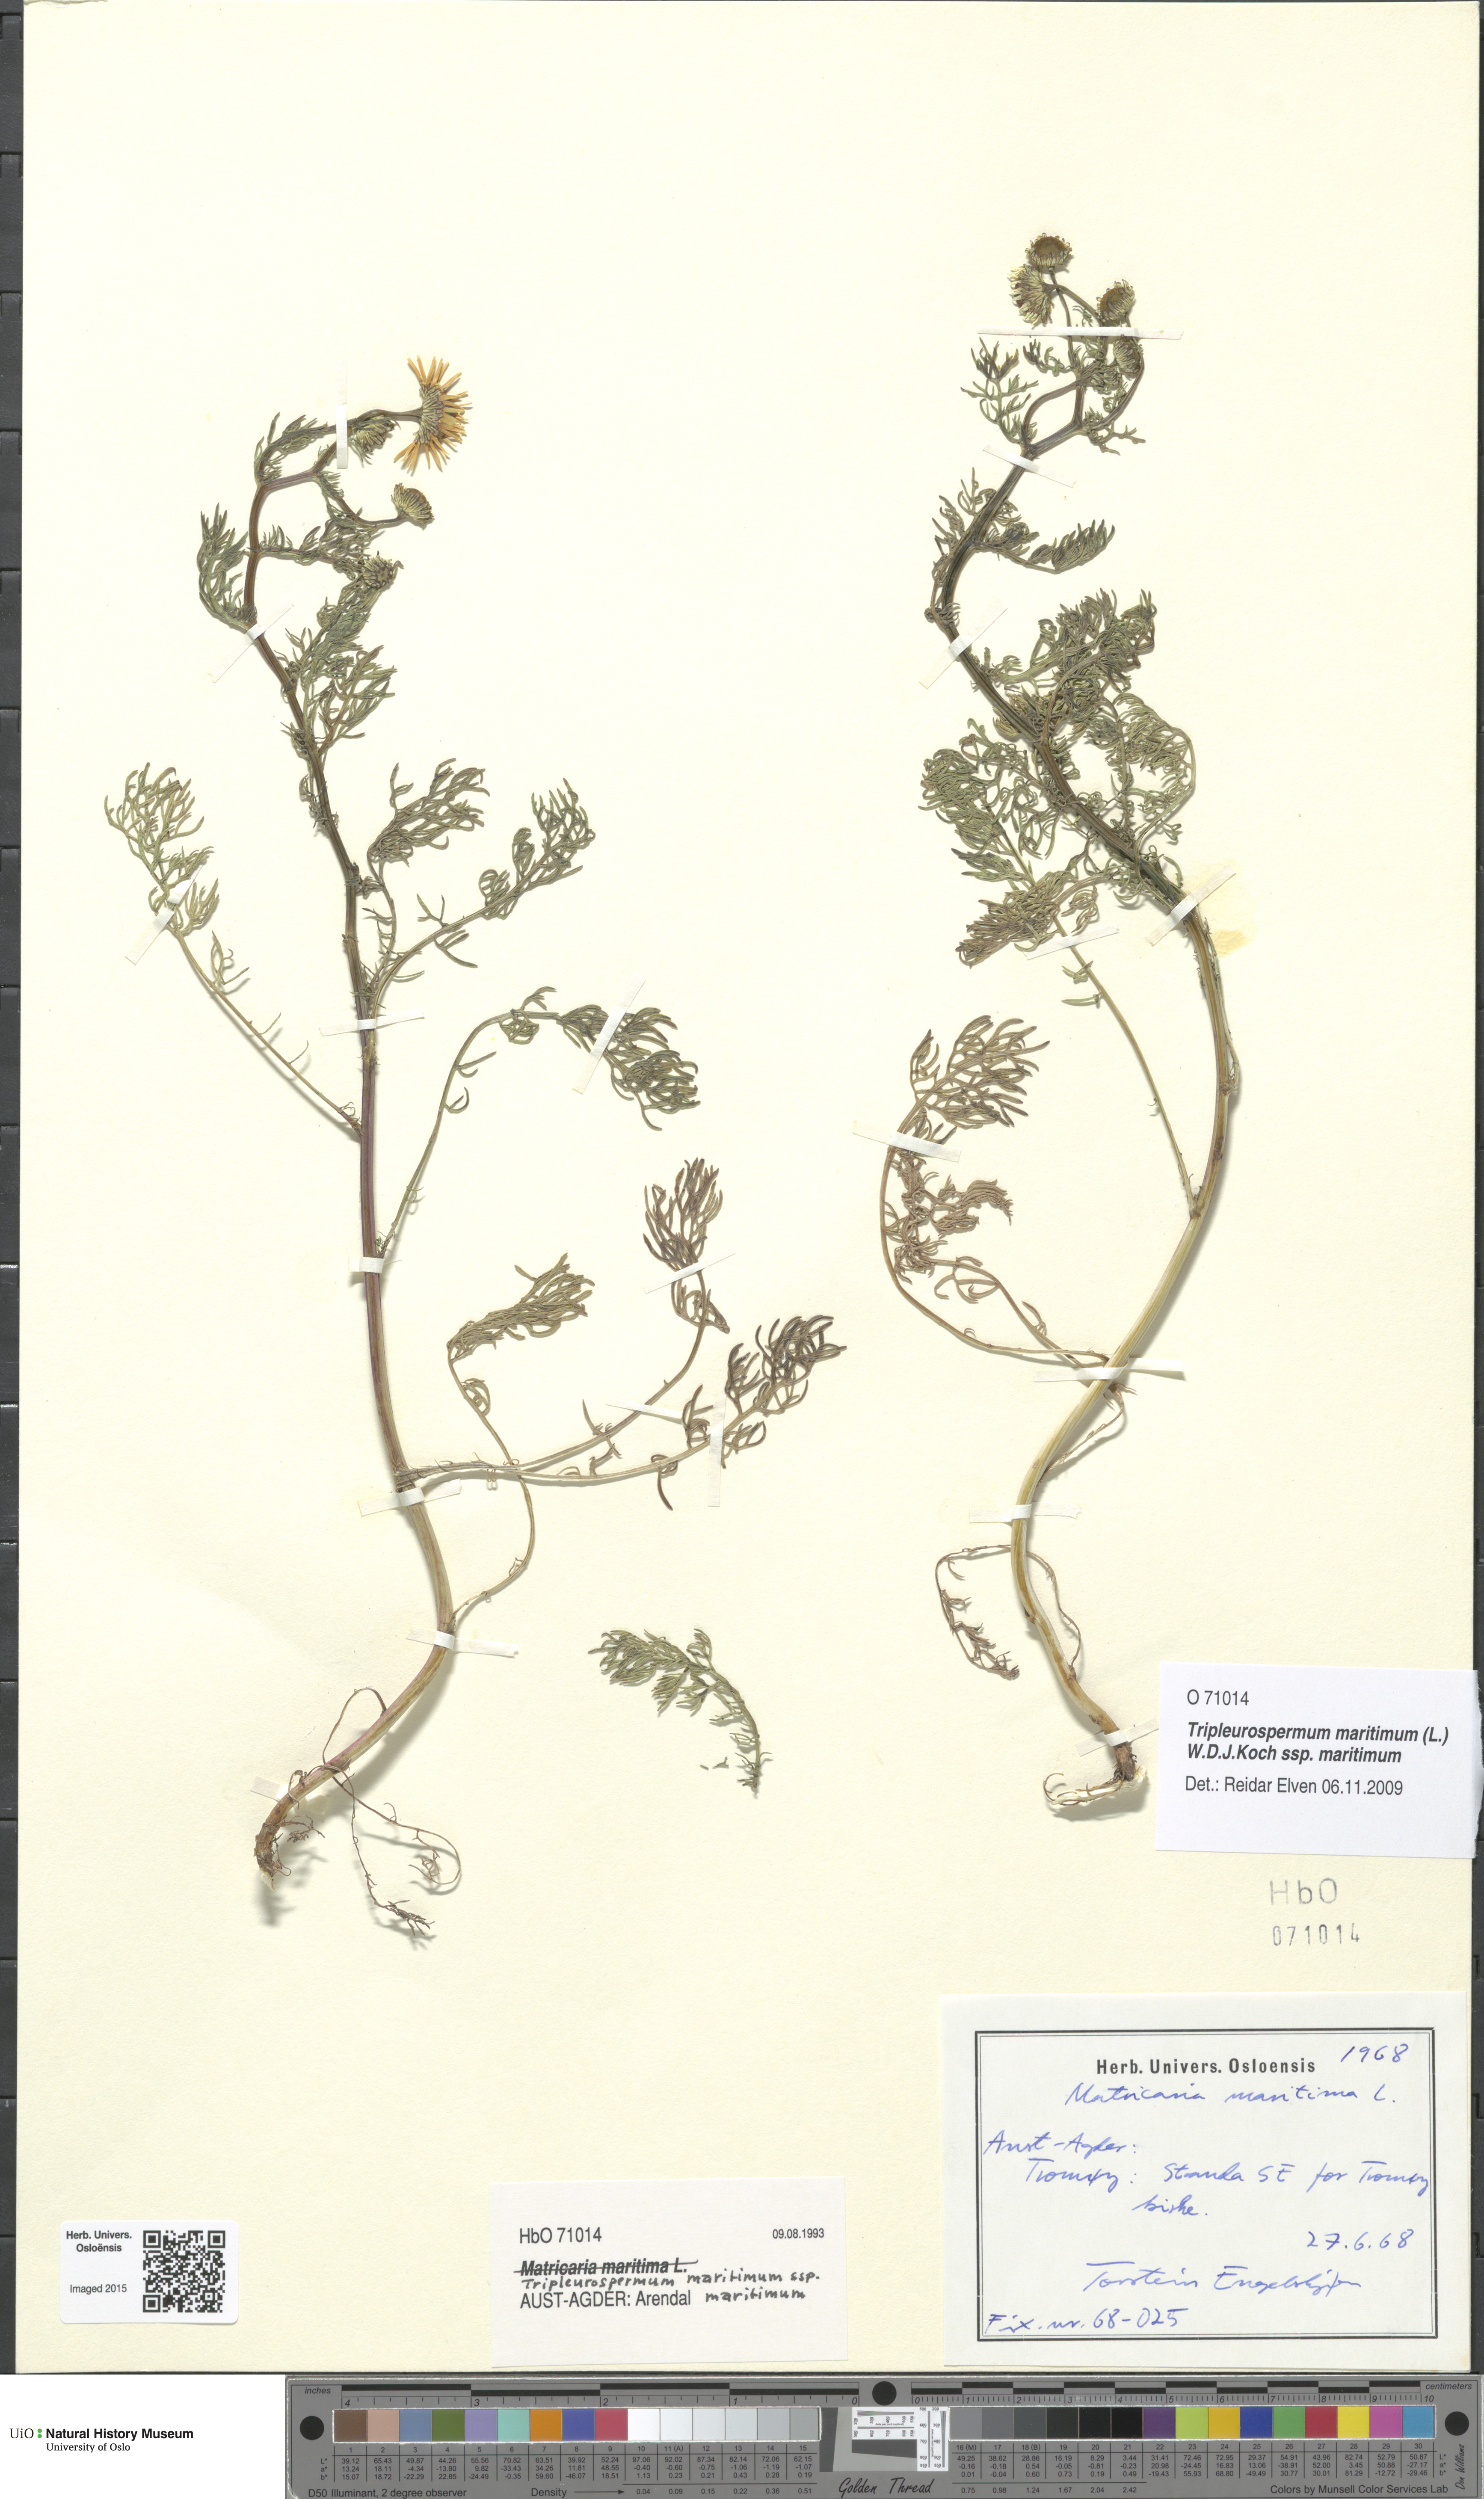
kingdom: Plantae
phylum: Tracheophyta
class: Magnoliopsida
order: Asterales
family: Asteraceae
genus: Tripleurospermum
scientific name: Tripleurospermum maritimum
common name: Sea mayweed
